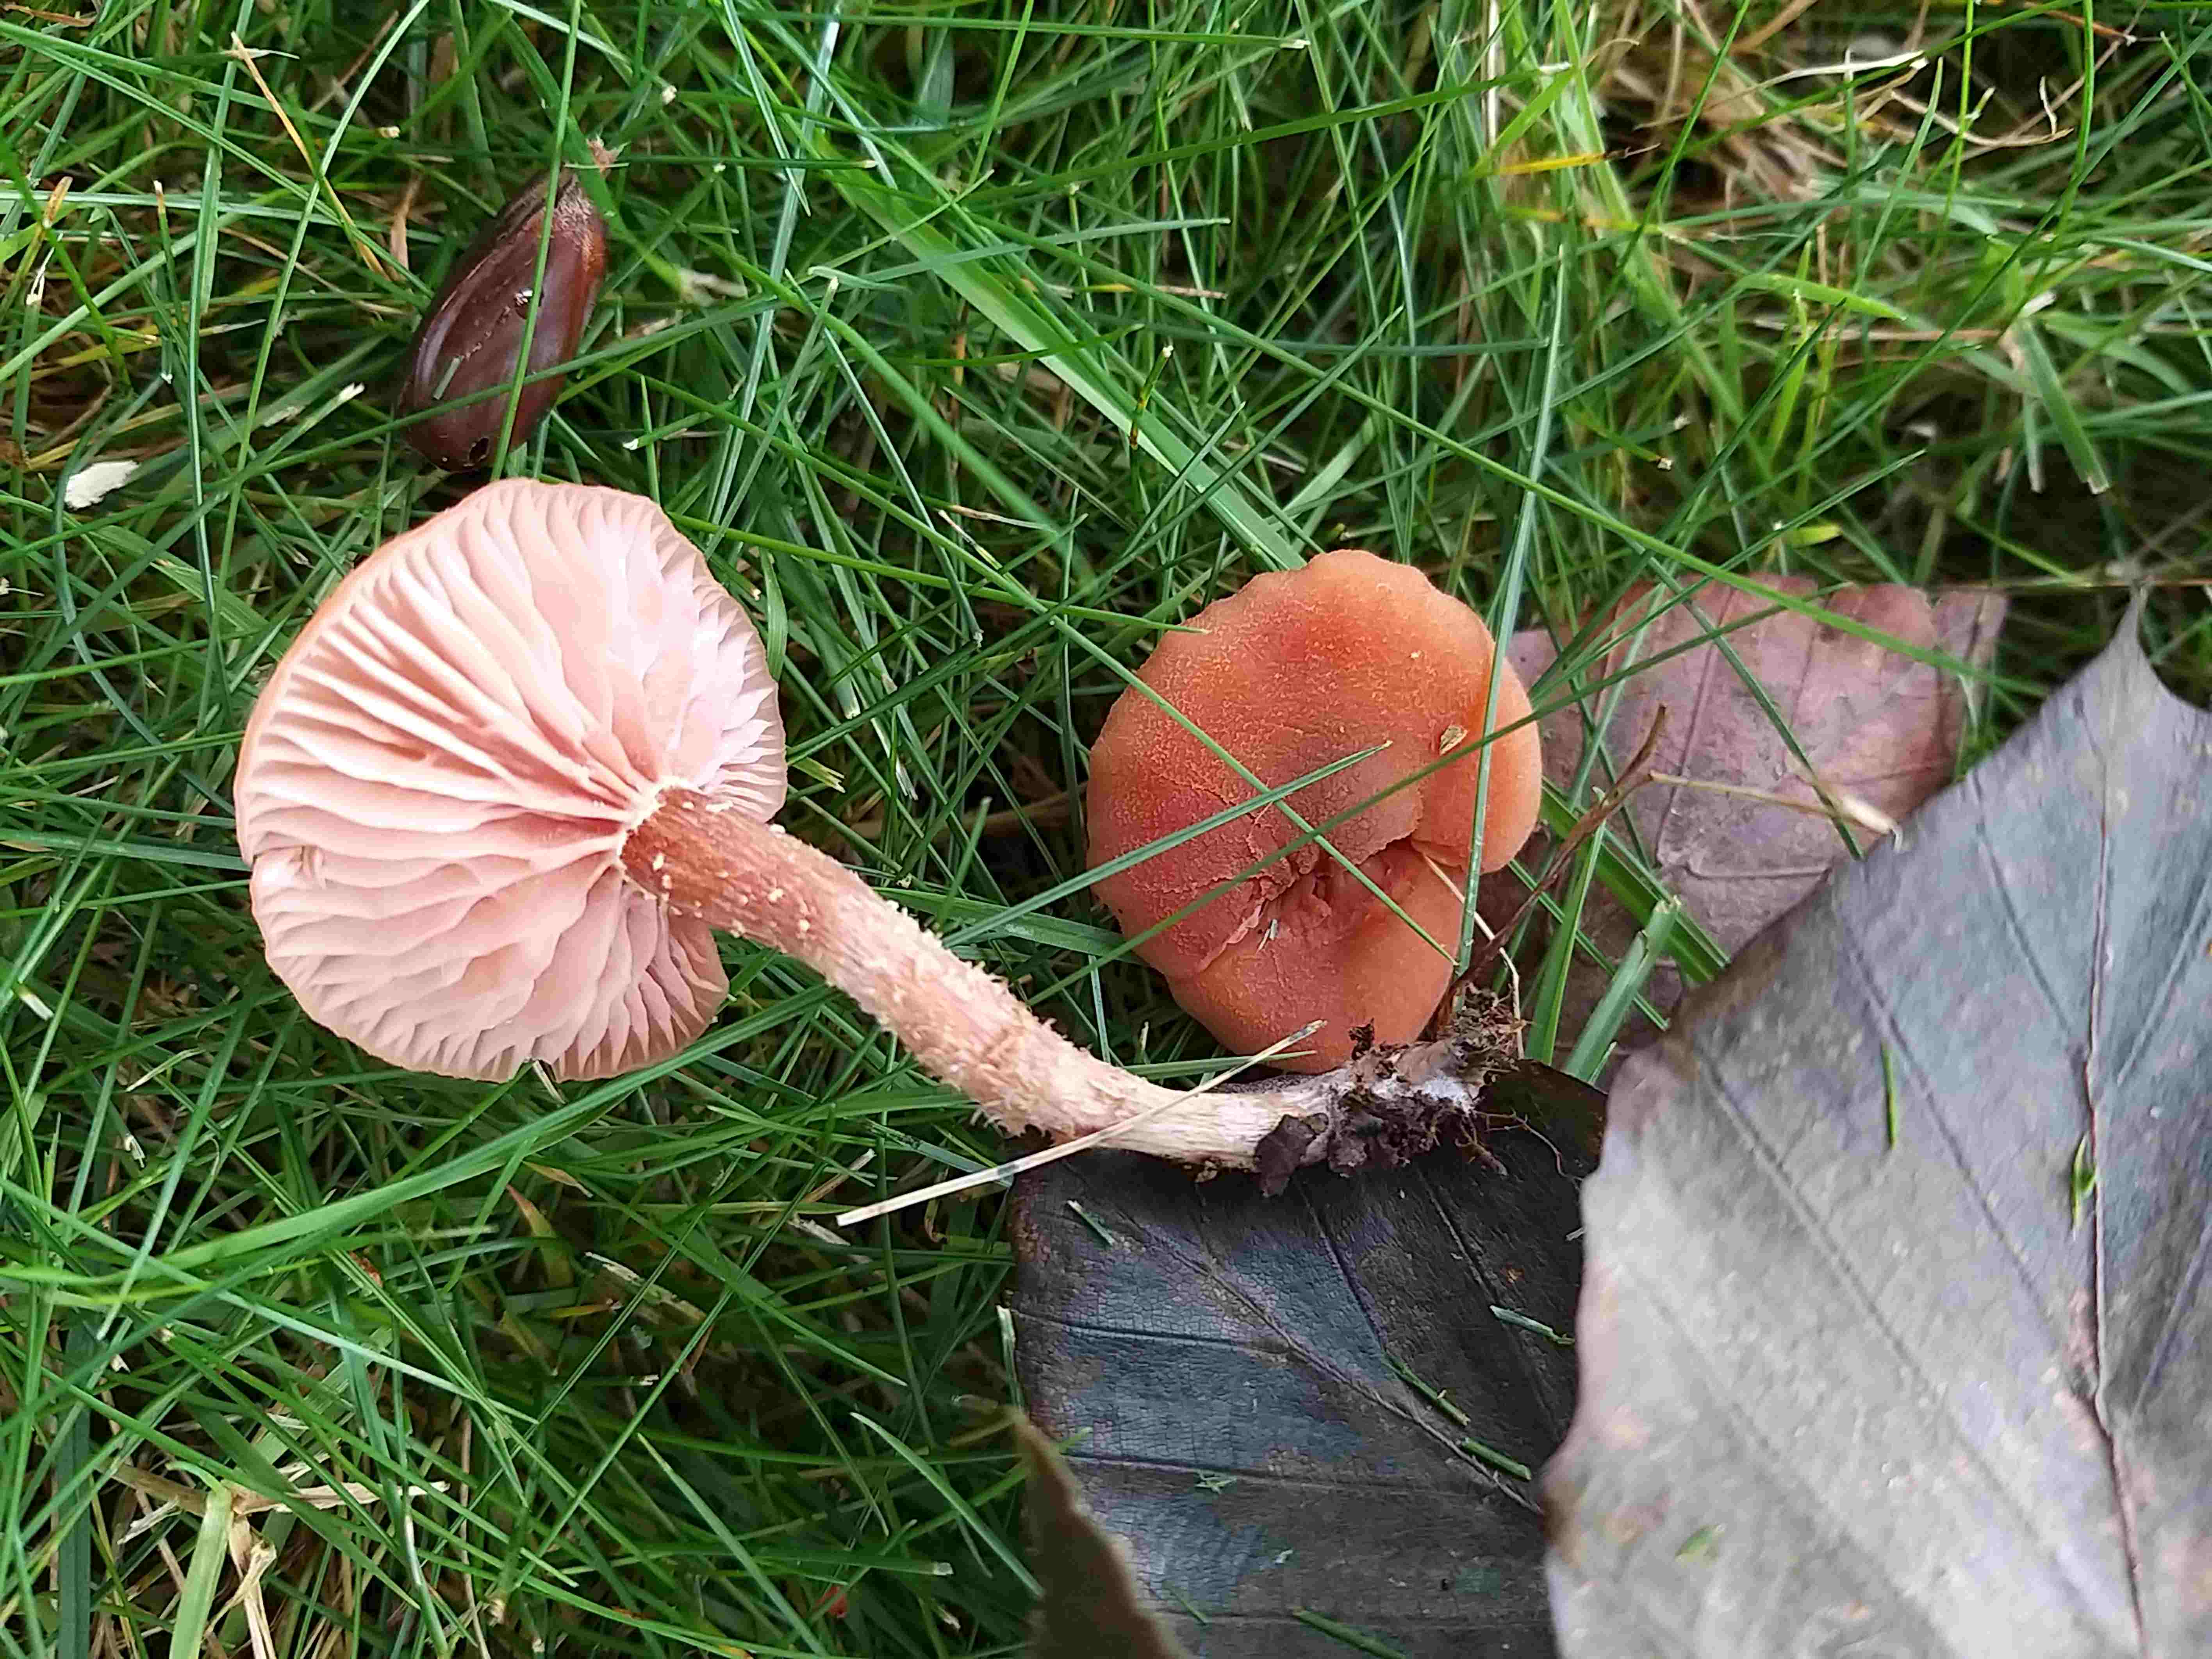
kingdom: Fungi
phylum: Basidiomycota
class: Agaricomycetes
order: Agaricales
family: Hydnangiaceae
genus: Laccaria
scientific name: Laccaria laccata
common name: rød ametysthat
